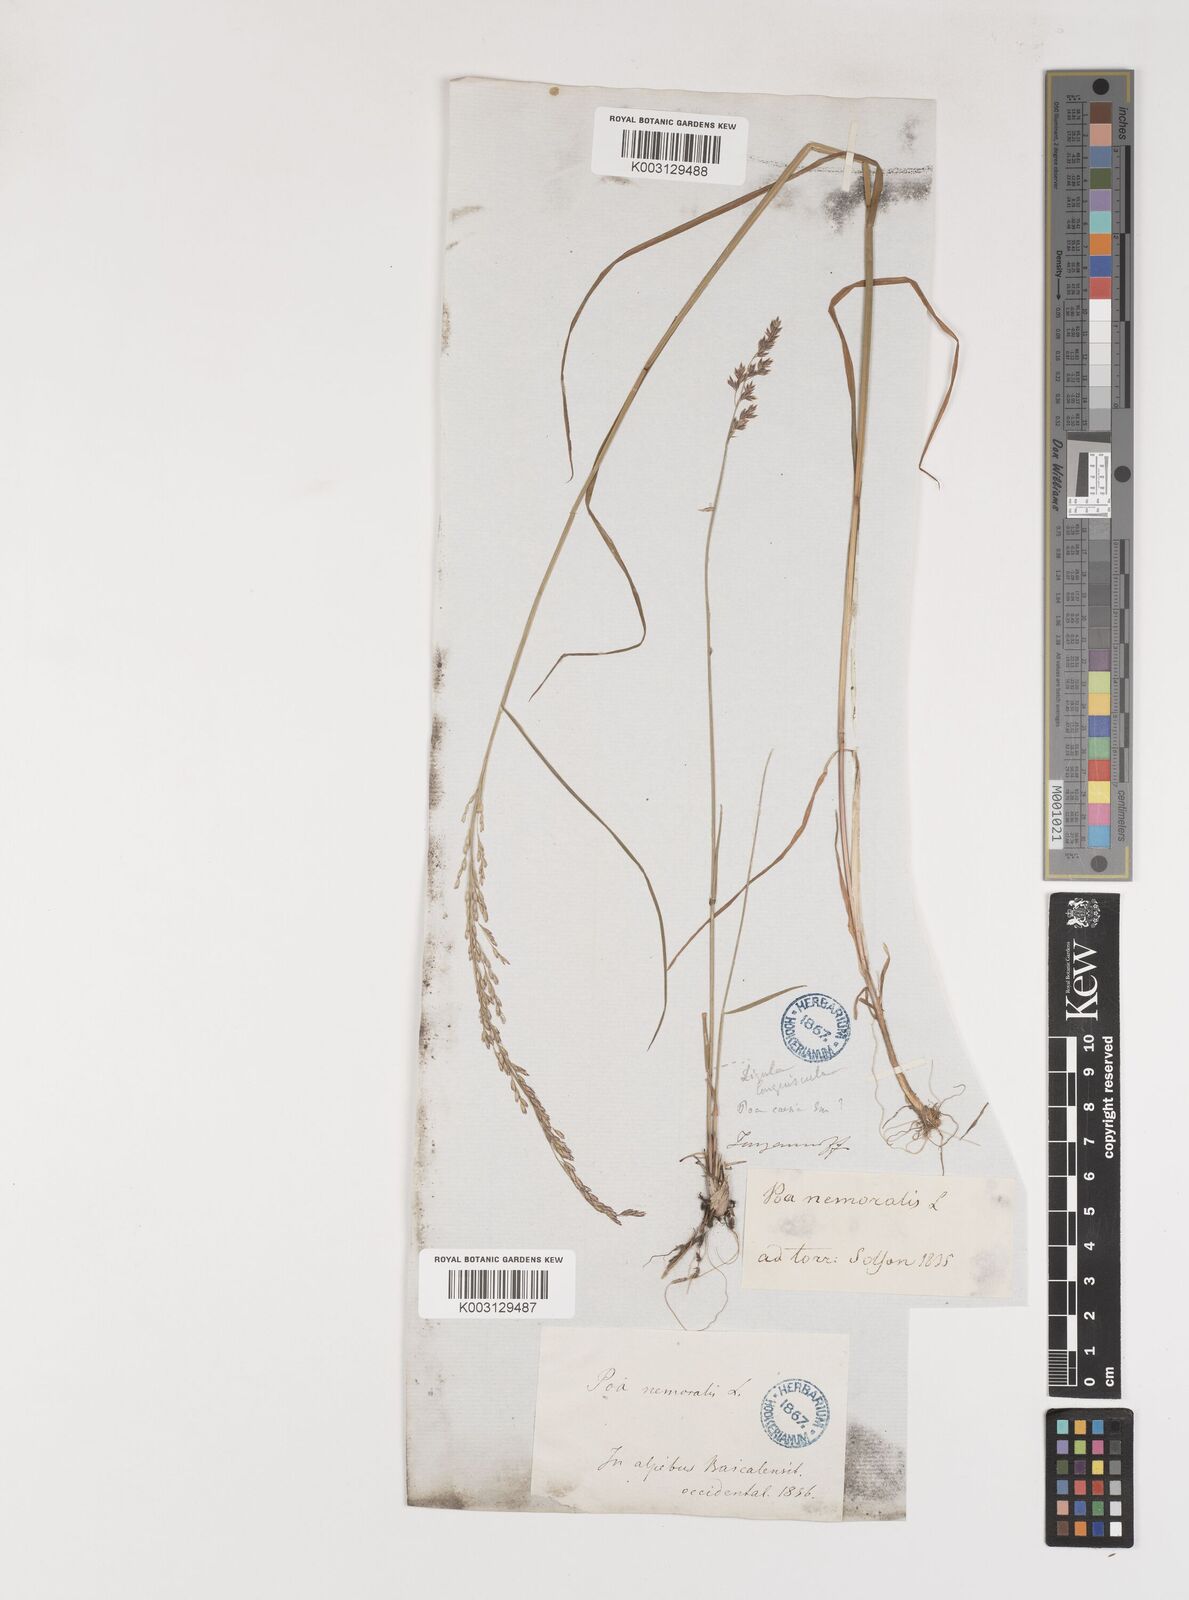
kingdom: Plantae
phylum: Tracheophyta
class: Liliopsida
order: Poales
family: Poaceae
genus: Poa
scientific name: Poa glauca
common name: Glaucous bluegrass
